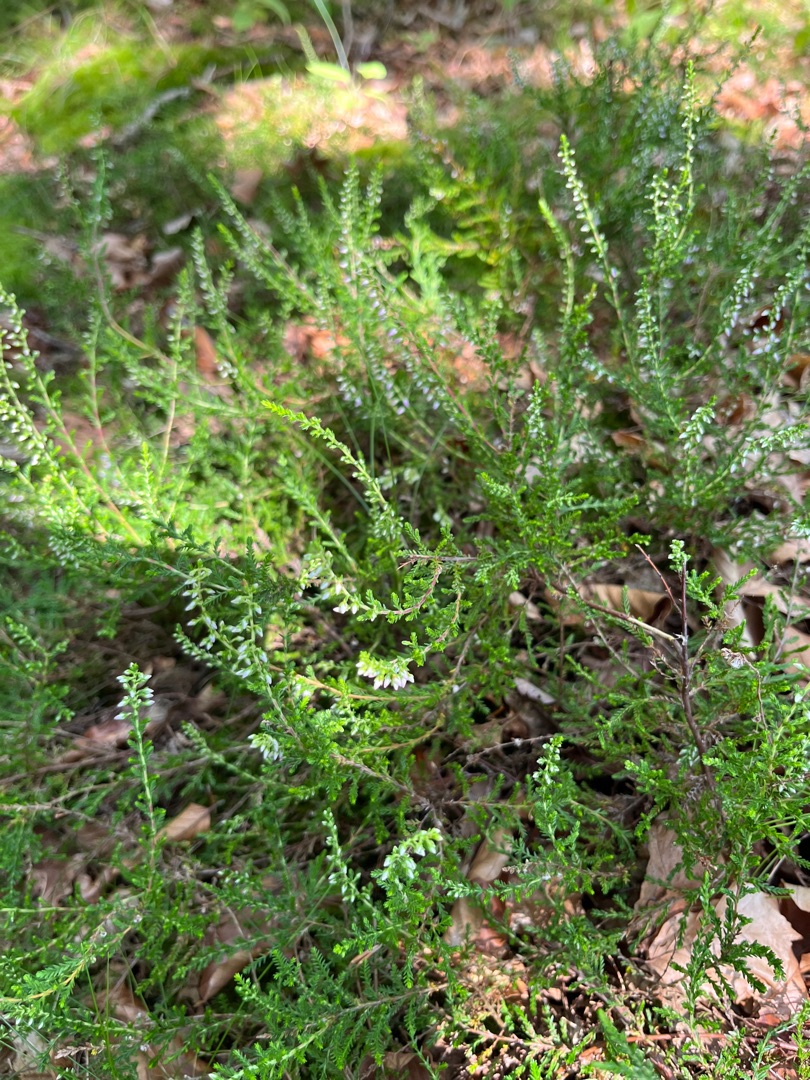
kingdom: Plantae
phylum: Tracheophyta
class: Magnoliopsida
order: Ericales
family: Ericaceae
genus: Calluna
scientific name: Calluna vulgaris
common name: Hedelyng
